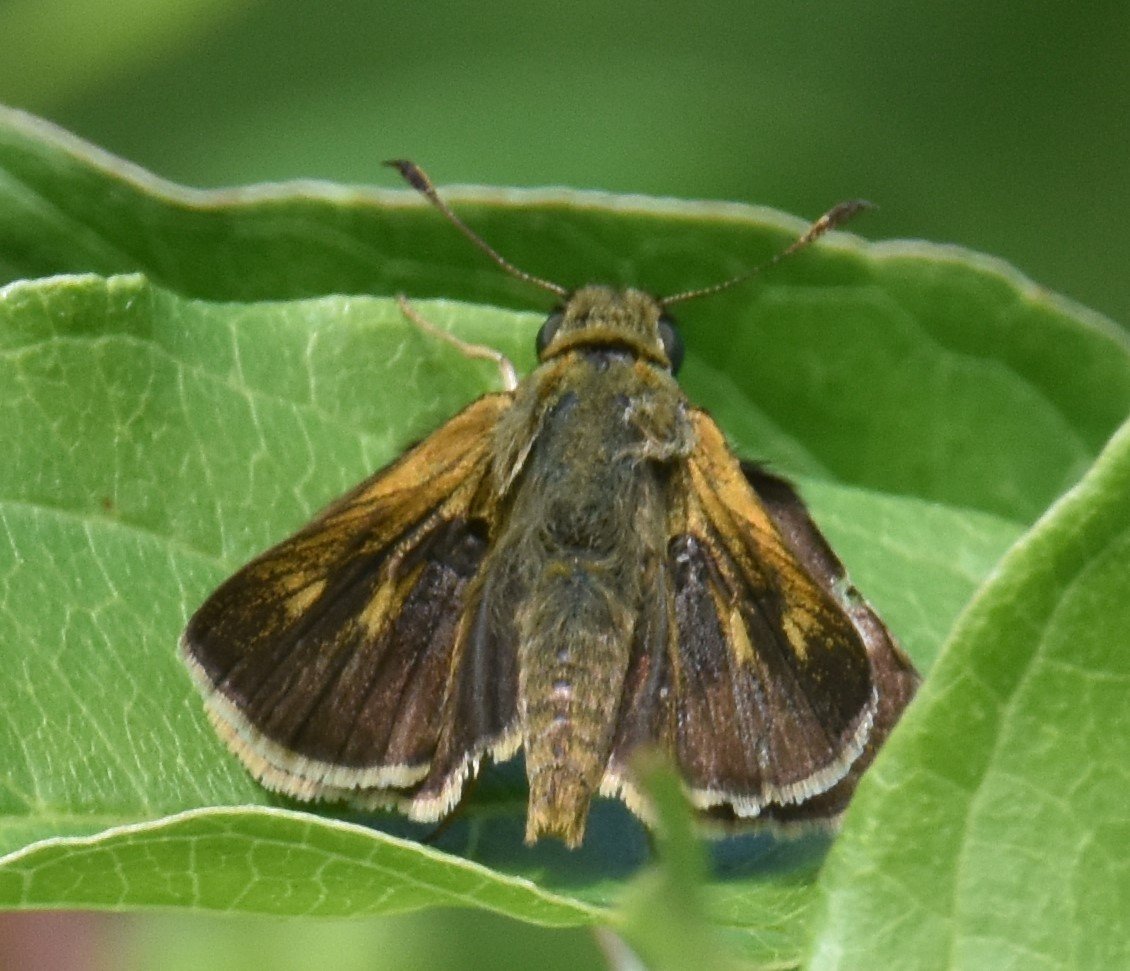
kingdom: Animalia
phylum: Arthropoda
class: Insecta
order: Lepidoptera
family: Hesperiidae
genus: Polites
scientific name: Polites egeremet
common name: Northern Broken-Dash
